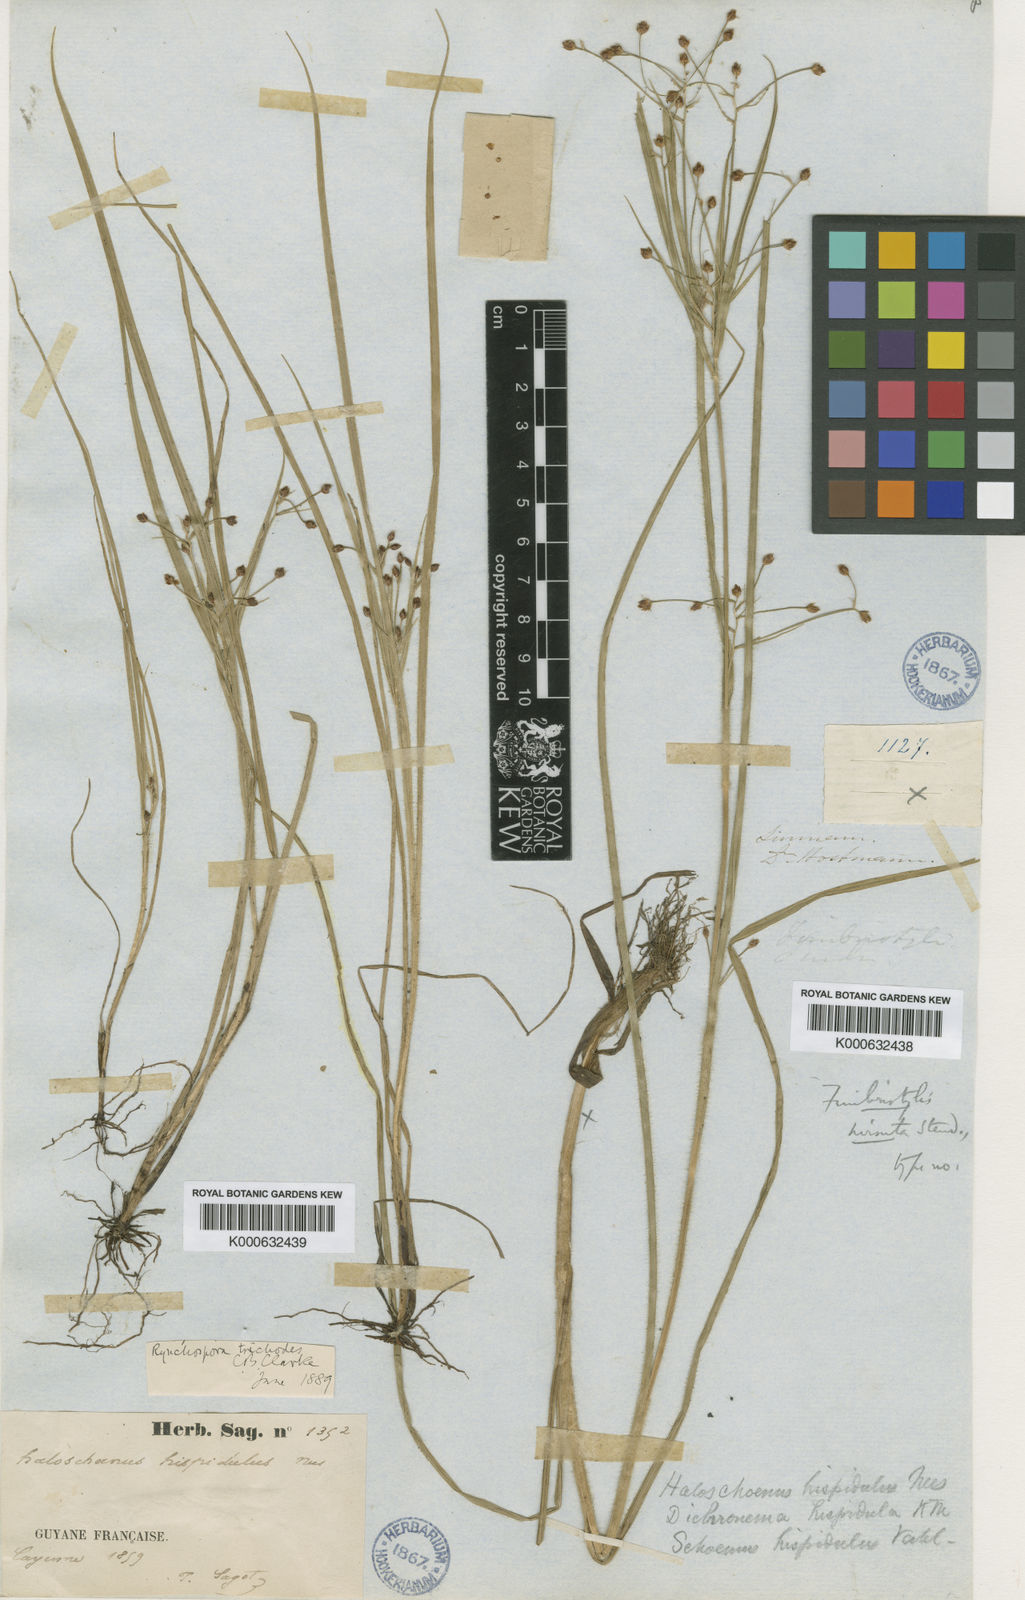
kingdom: Plantae
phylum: Tracheophyta
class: Liliopsida
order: Poales
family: Cyperaceae
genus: Rhynchospora
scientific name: Rhynchospora divaricata
